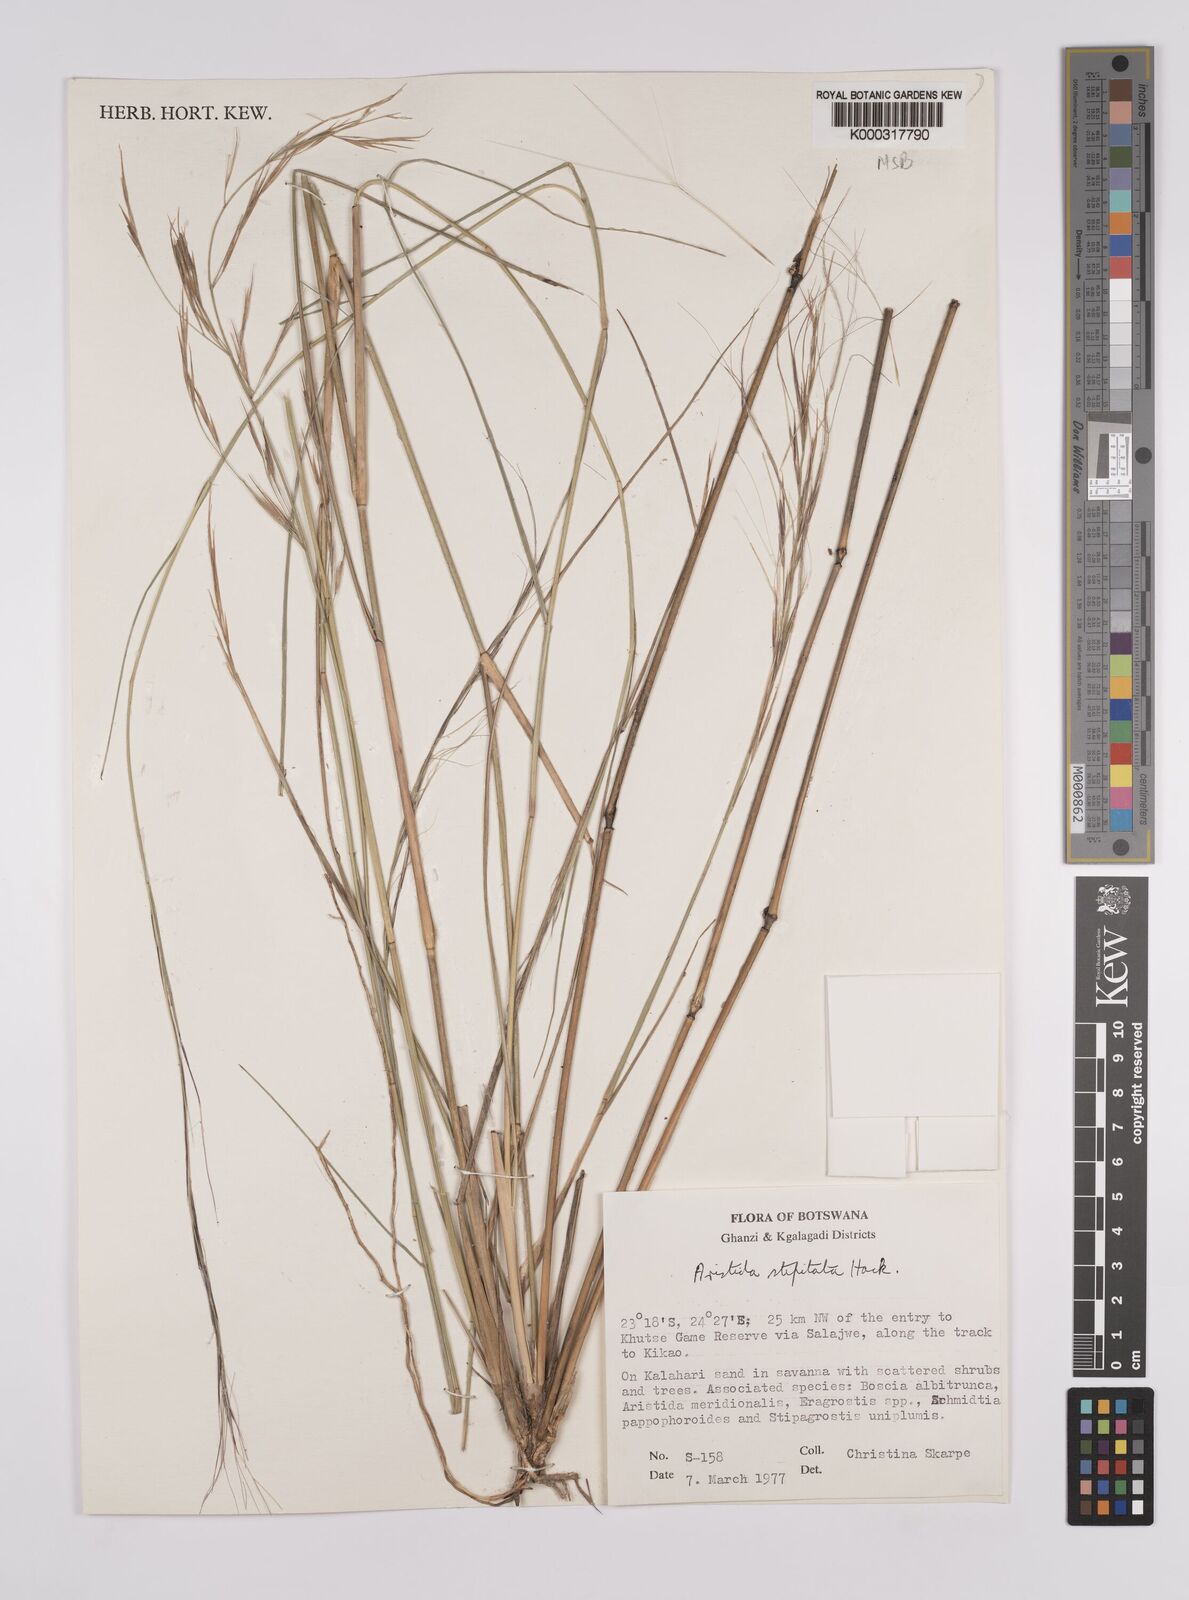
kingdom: Plantae
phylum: Tracheophyta
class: Liliopsida
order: Poales
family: Poaceae
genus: Aristida
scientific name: Aristida stipitata
